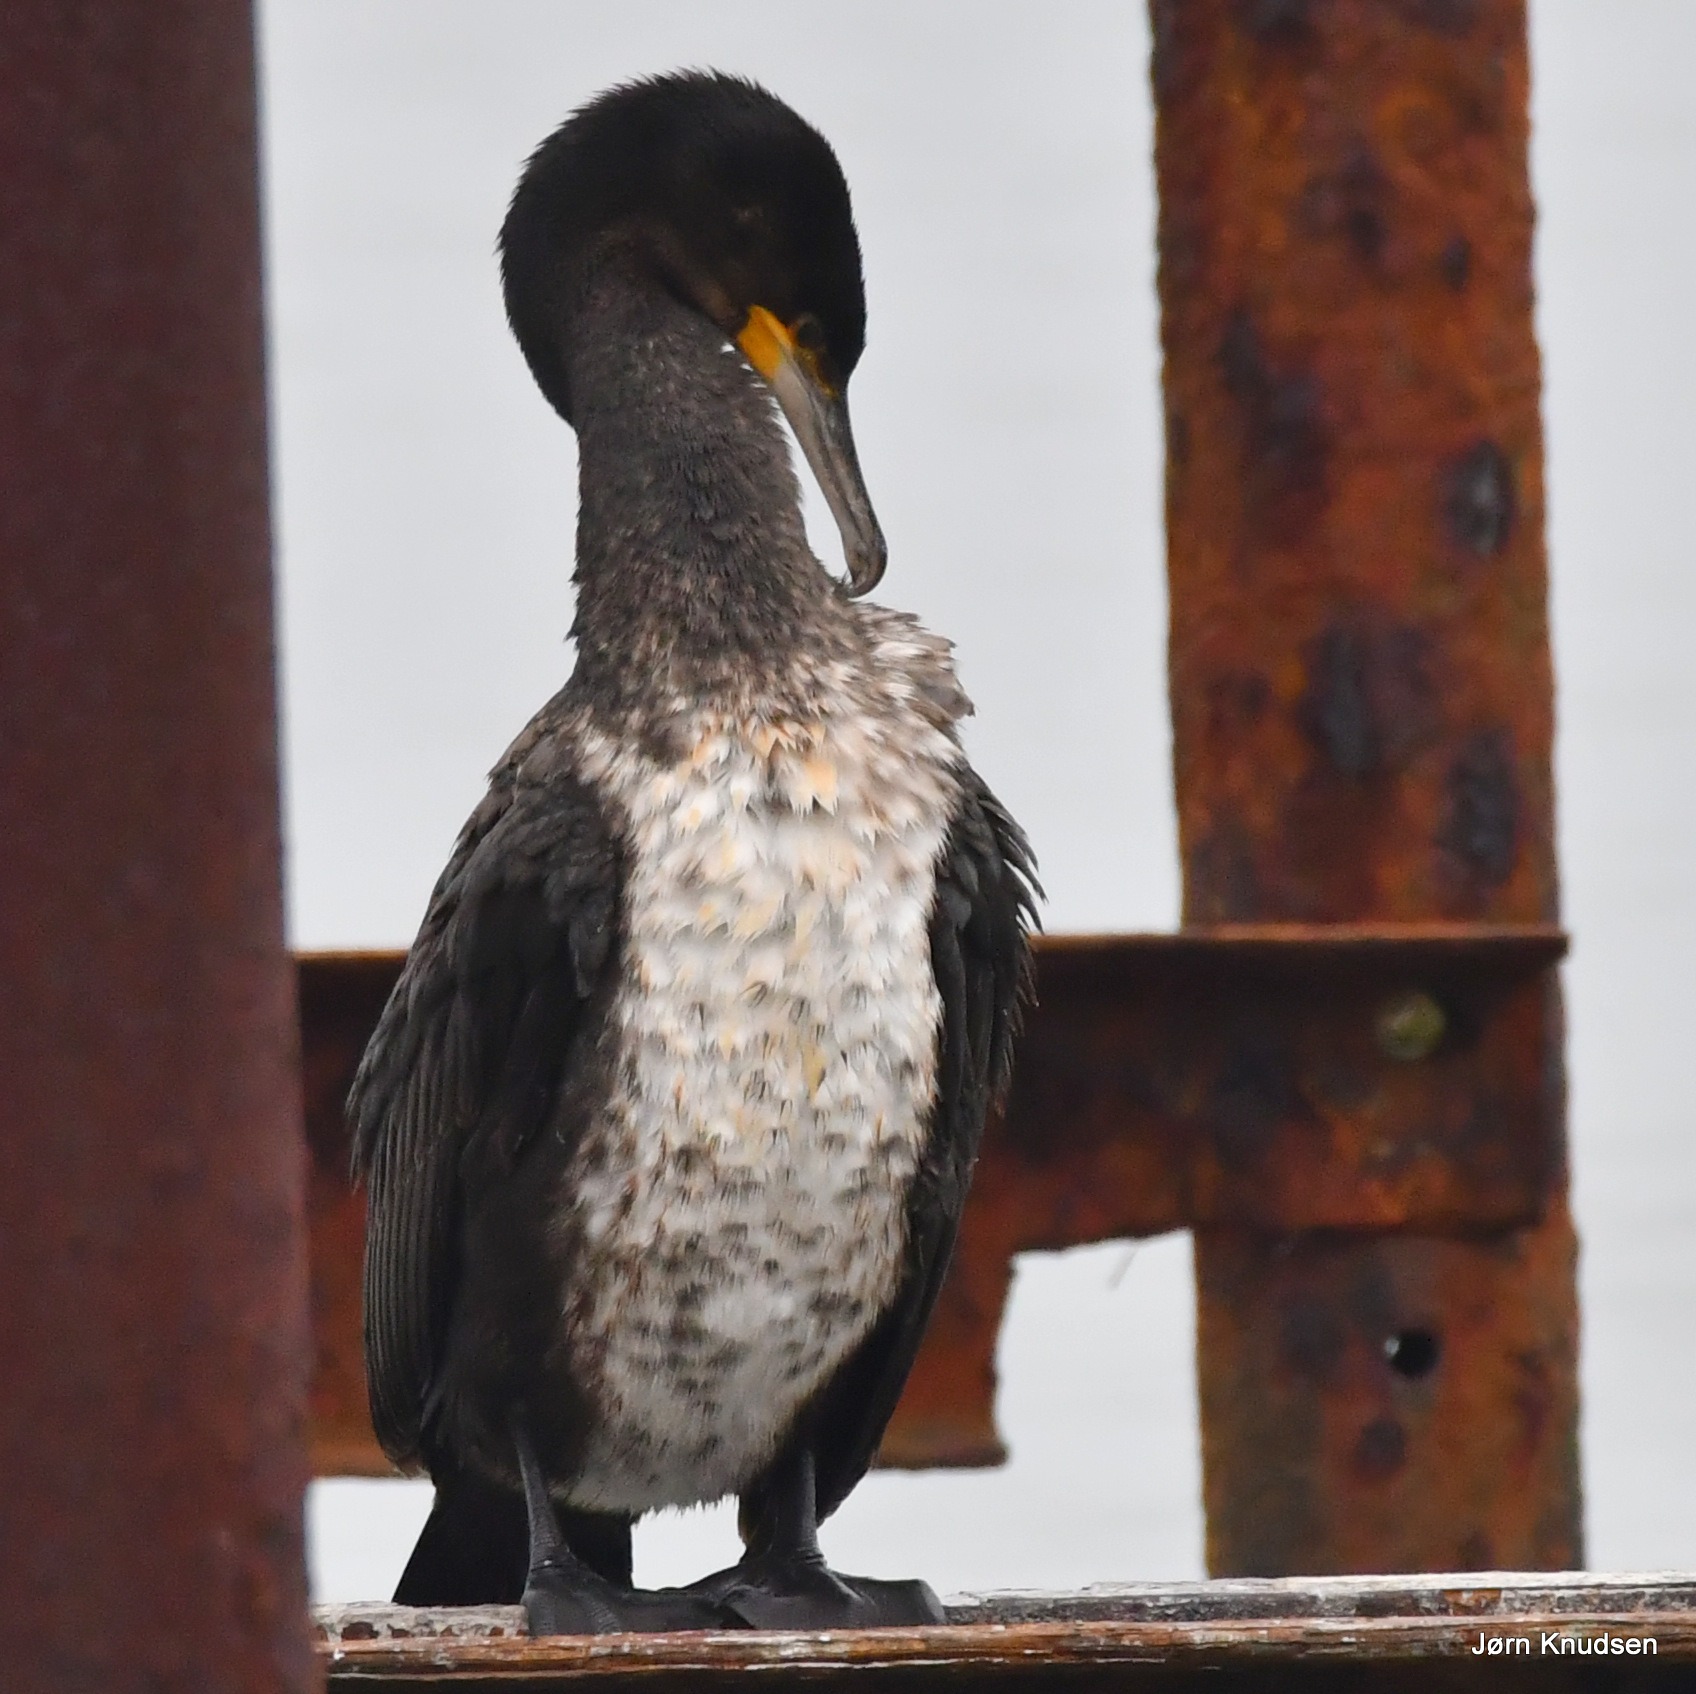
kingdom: Animalia
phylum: Chordata
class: Aves
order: Suliformes
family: Phalacrocoracidae
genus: Phalacrocorax
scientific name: Phalacrocorax carbo
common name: Skarv
